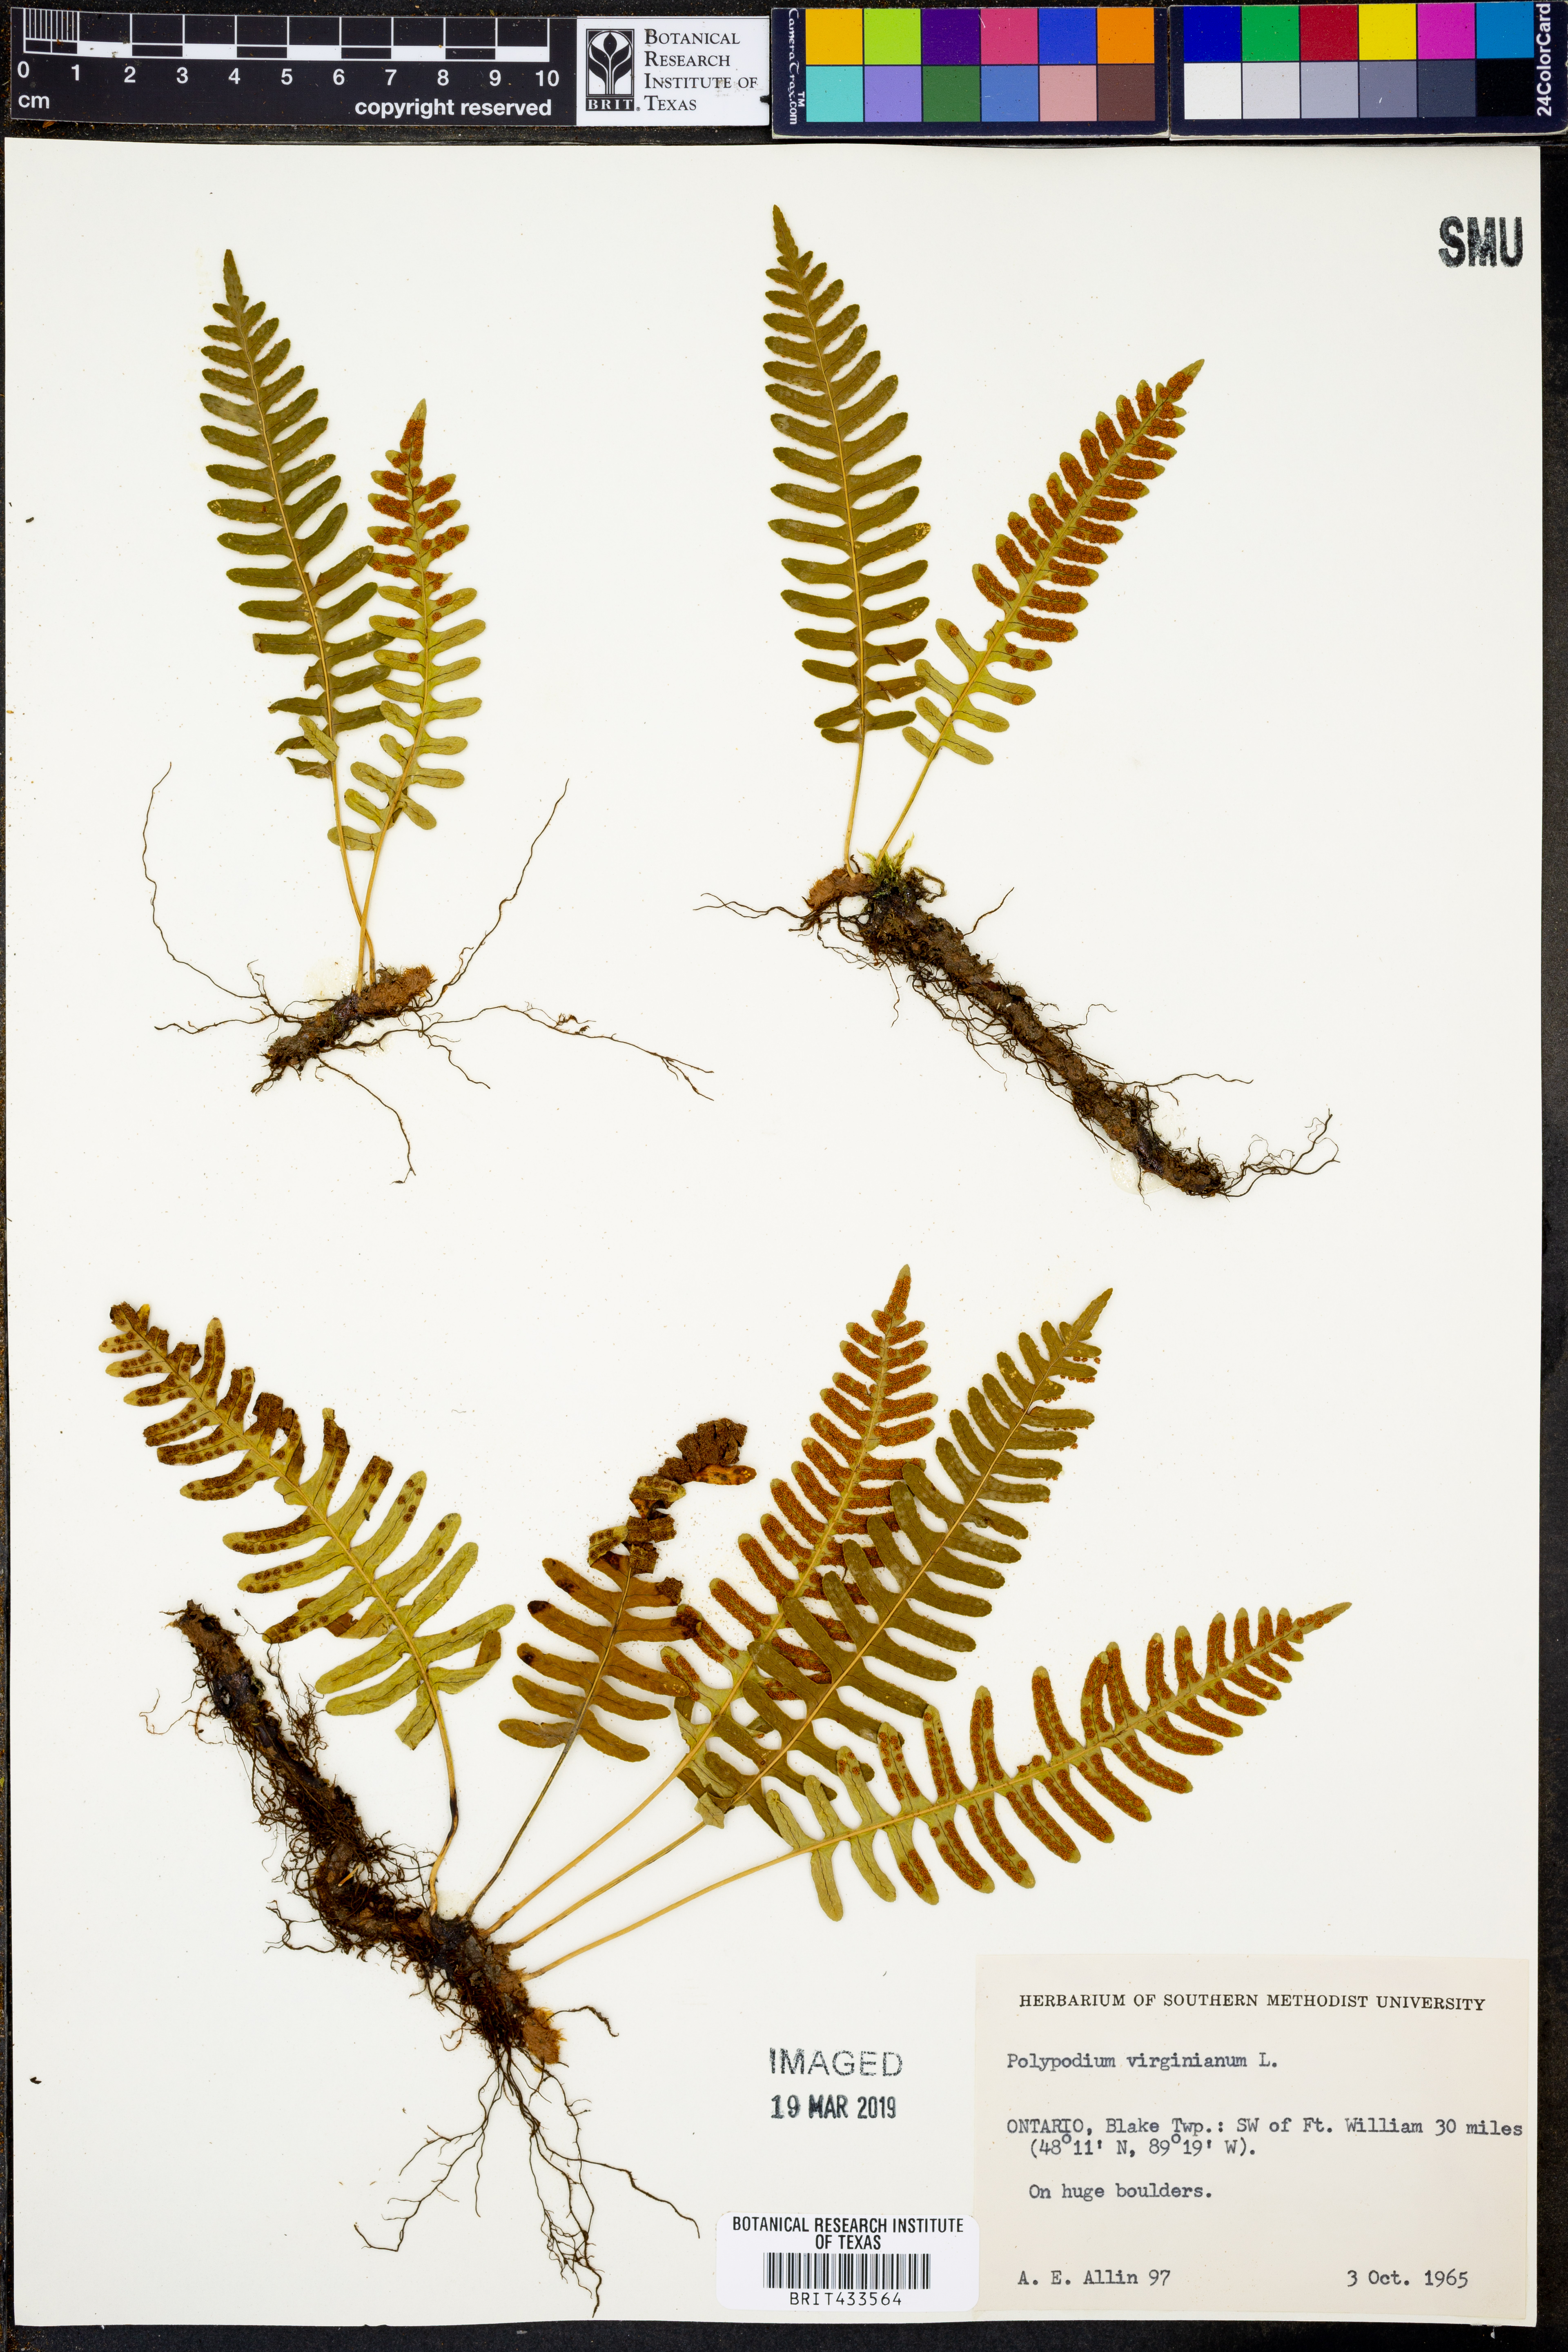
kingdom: Plantae
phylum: Tracheophyta
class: Polypodiopsida
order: Polypodiales
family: Polypodiaceae
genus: Polypodium
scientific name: Polypodium virginianum
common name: American wall fern
